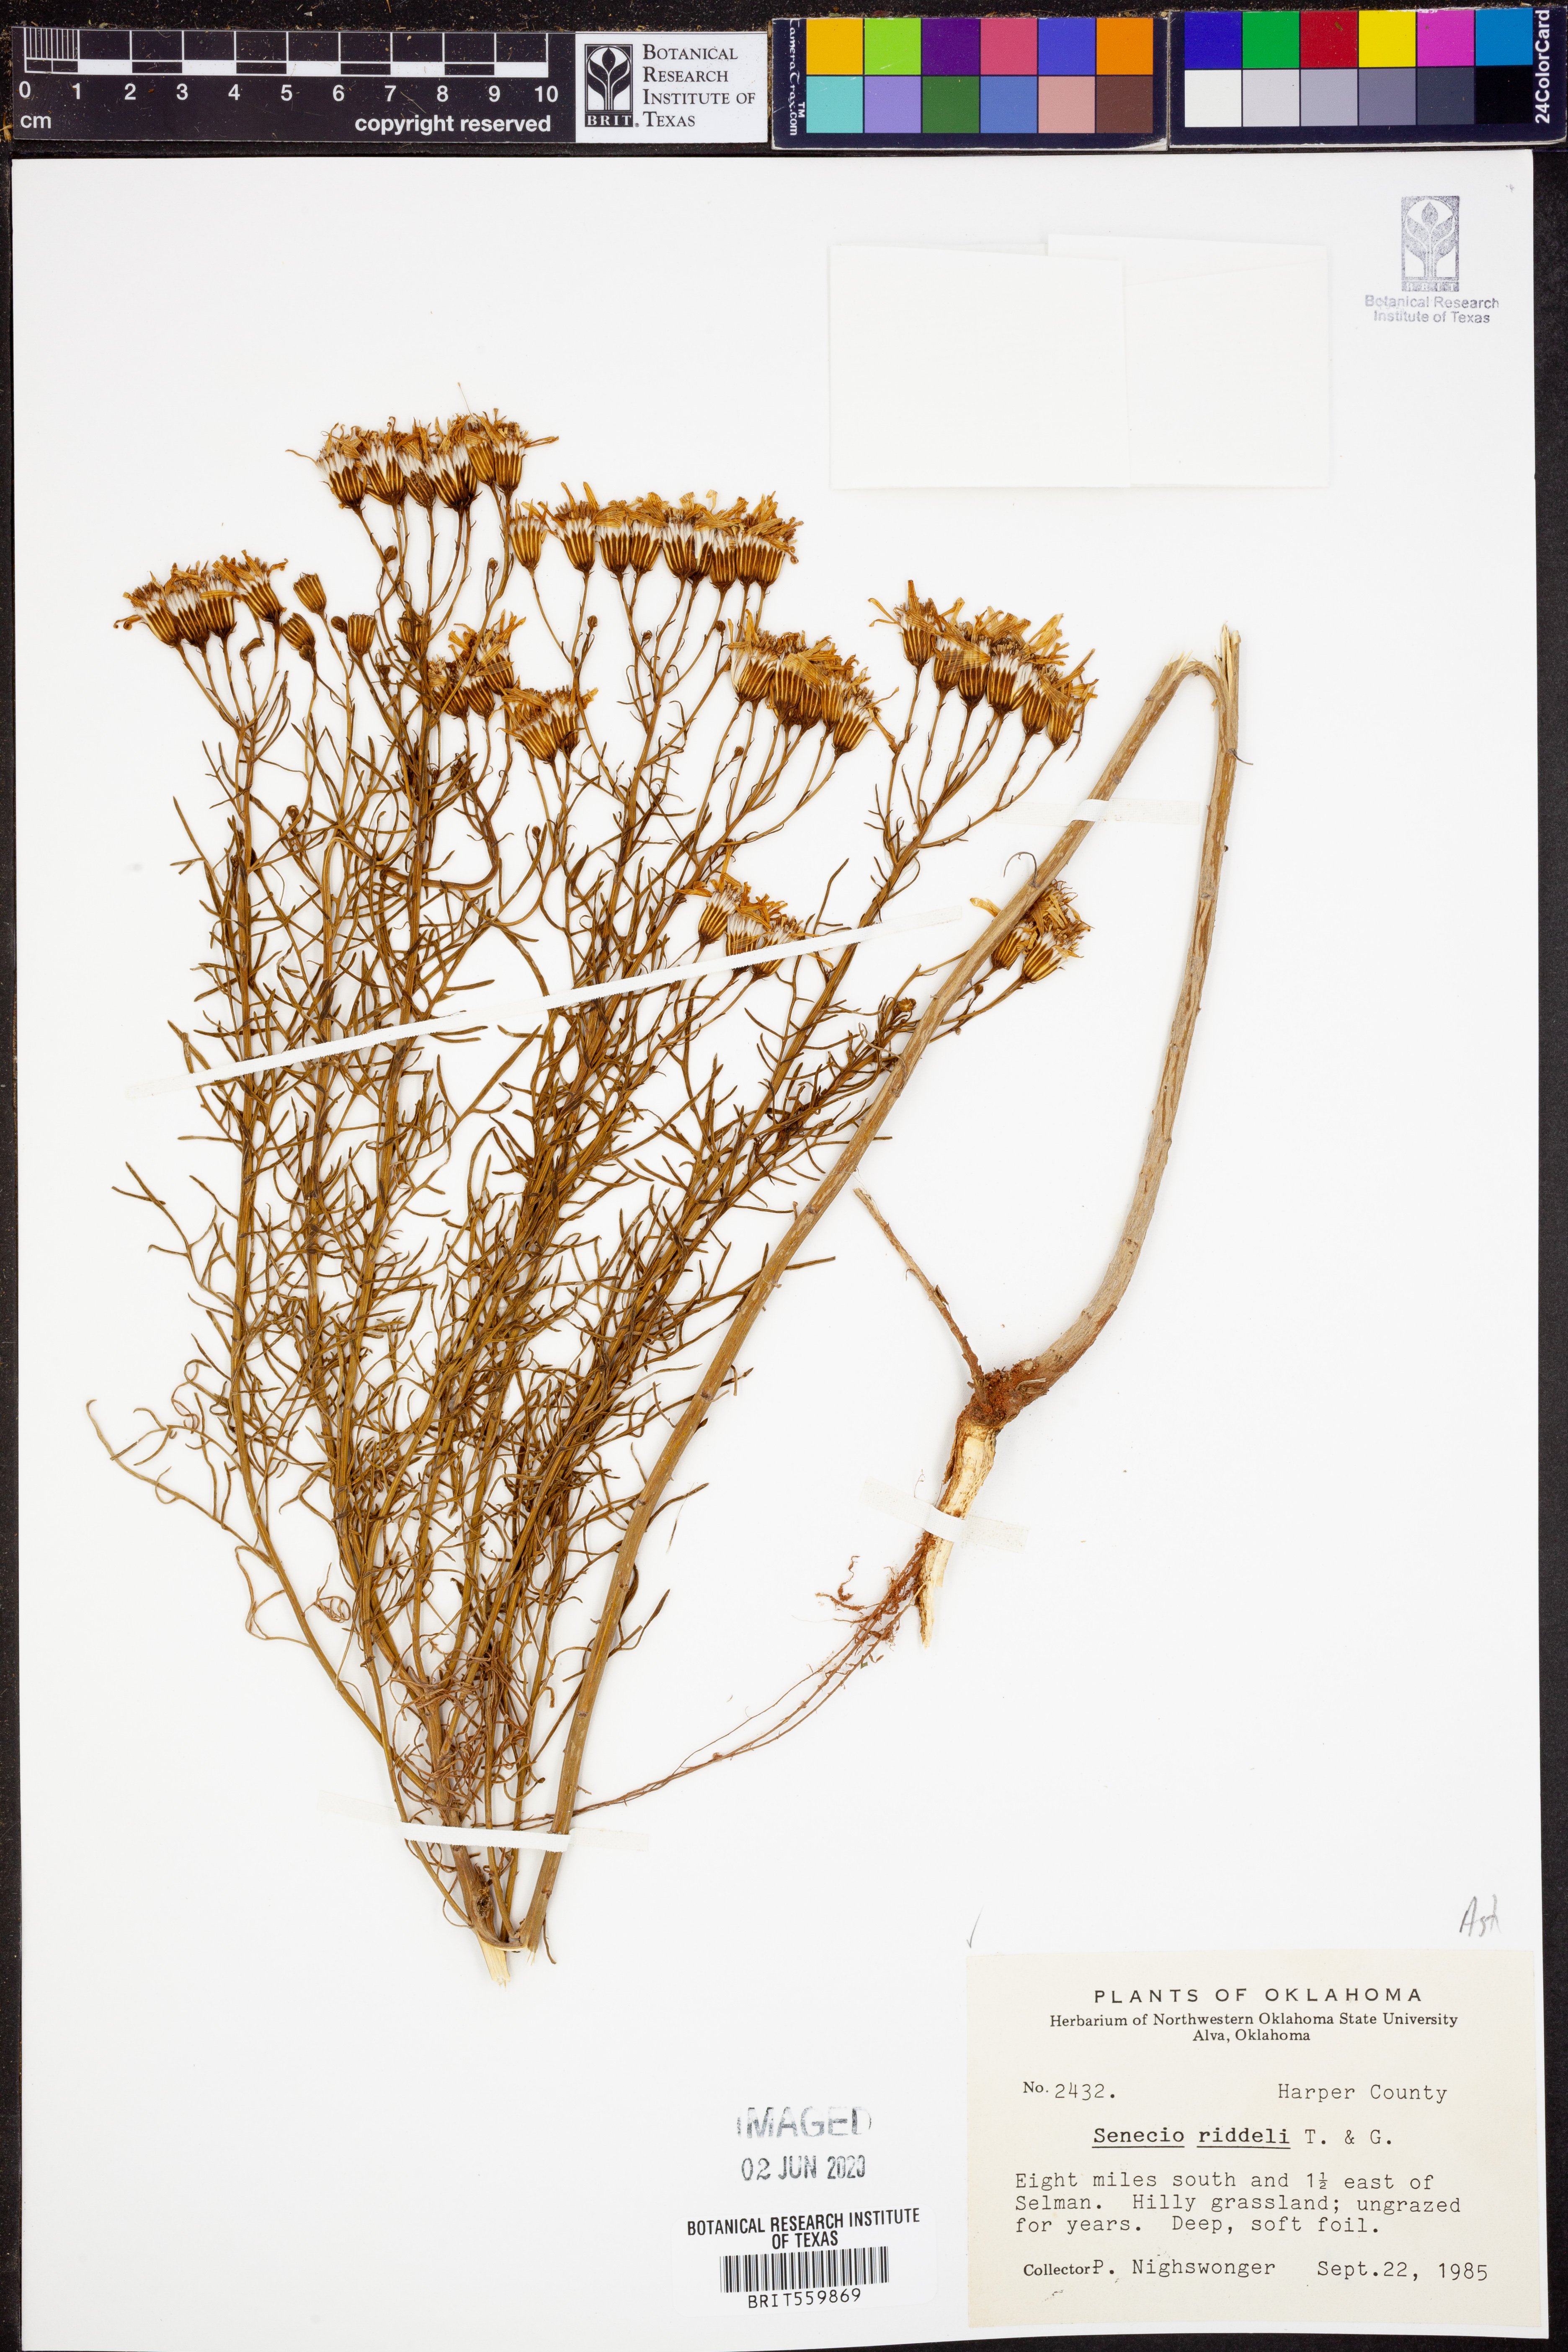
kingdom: Plantae
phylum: Tracheophyta
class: Magnoliopsida
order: Asterales
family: Asteraceae
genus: Senecio
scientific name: Senecio riddellii
